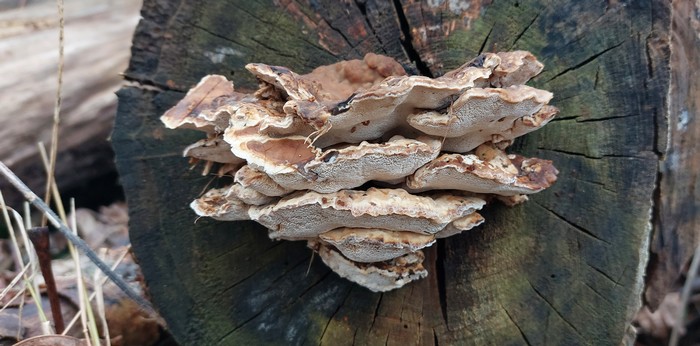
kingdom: Fungi
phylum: Basidiomycota
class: Agaricomycetes
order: Polyporales
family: Phanerochaetaceae
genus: Bjerkandera
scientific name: Bjerkandera fumosa
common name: grågul sodporesvamp
